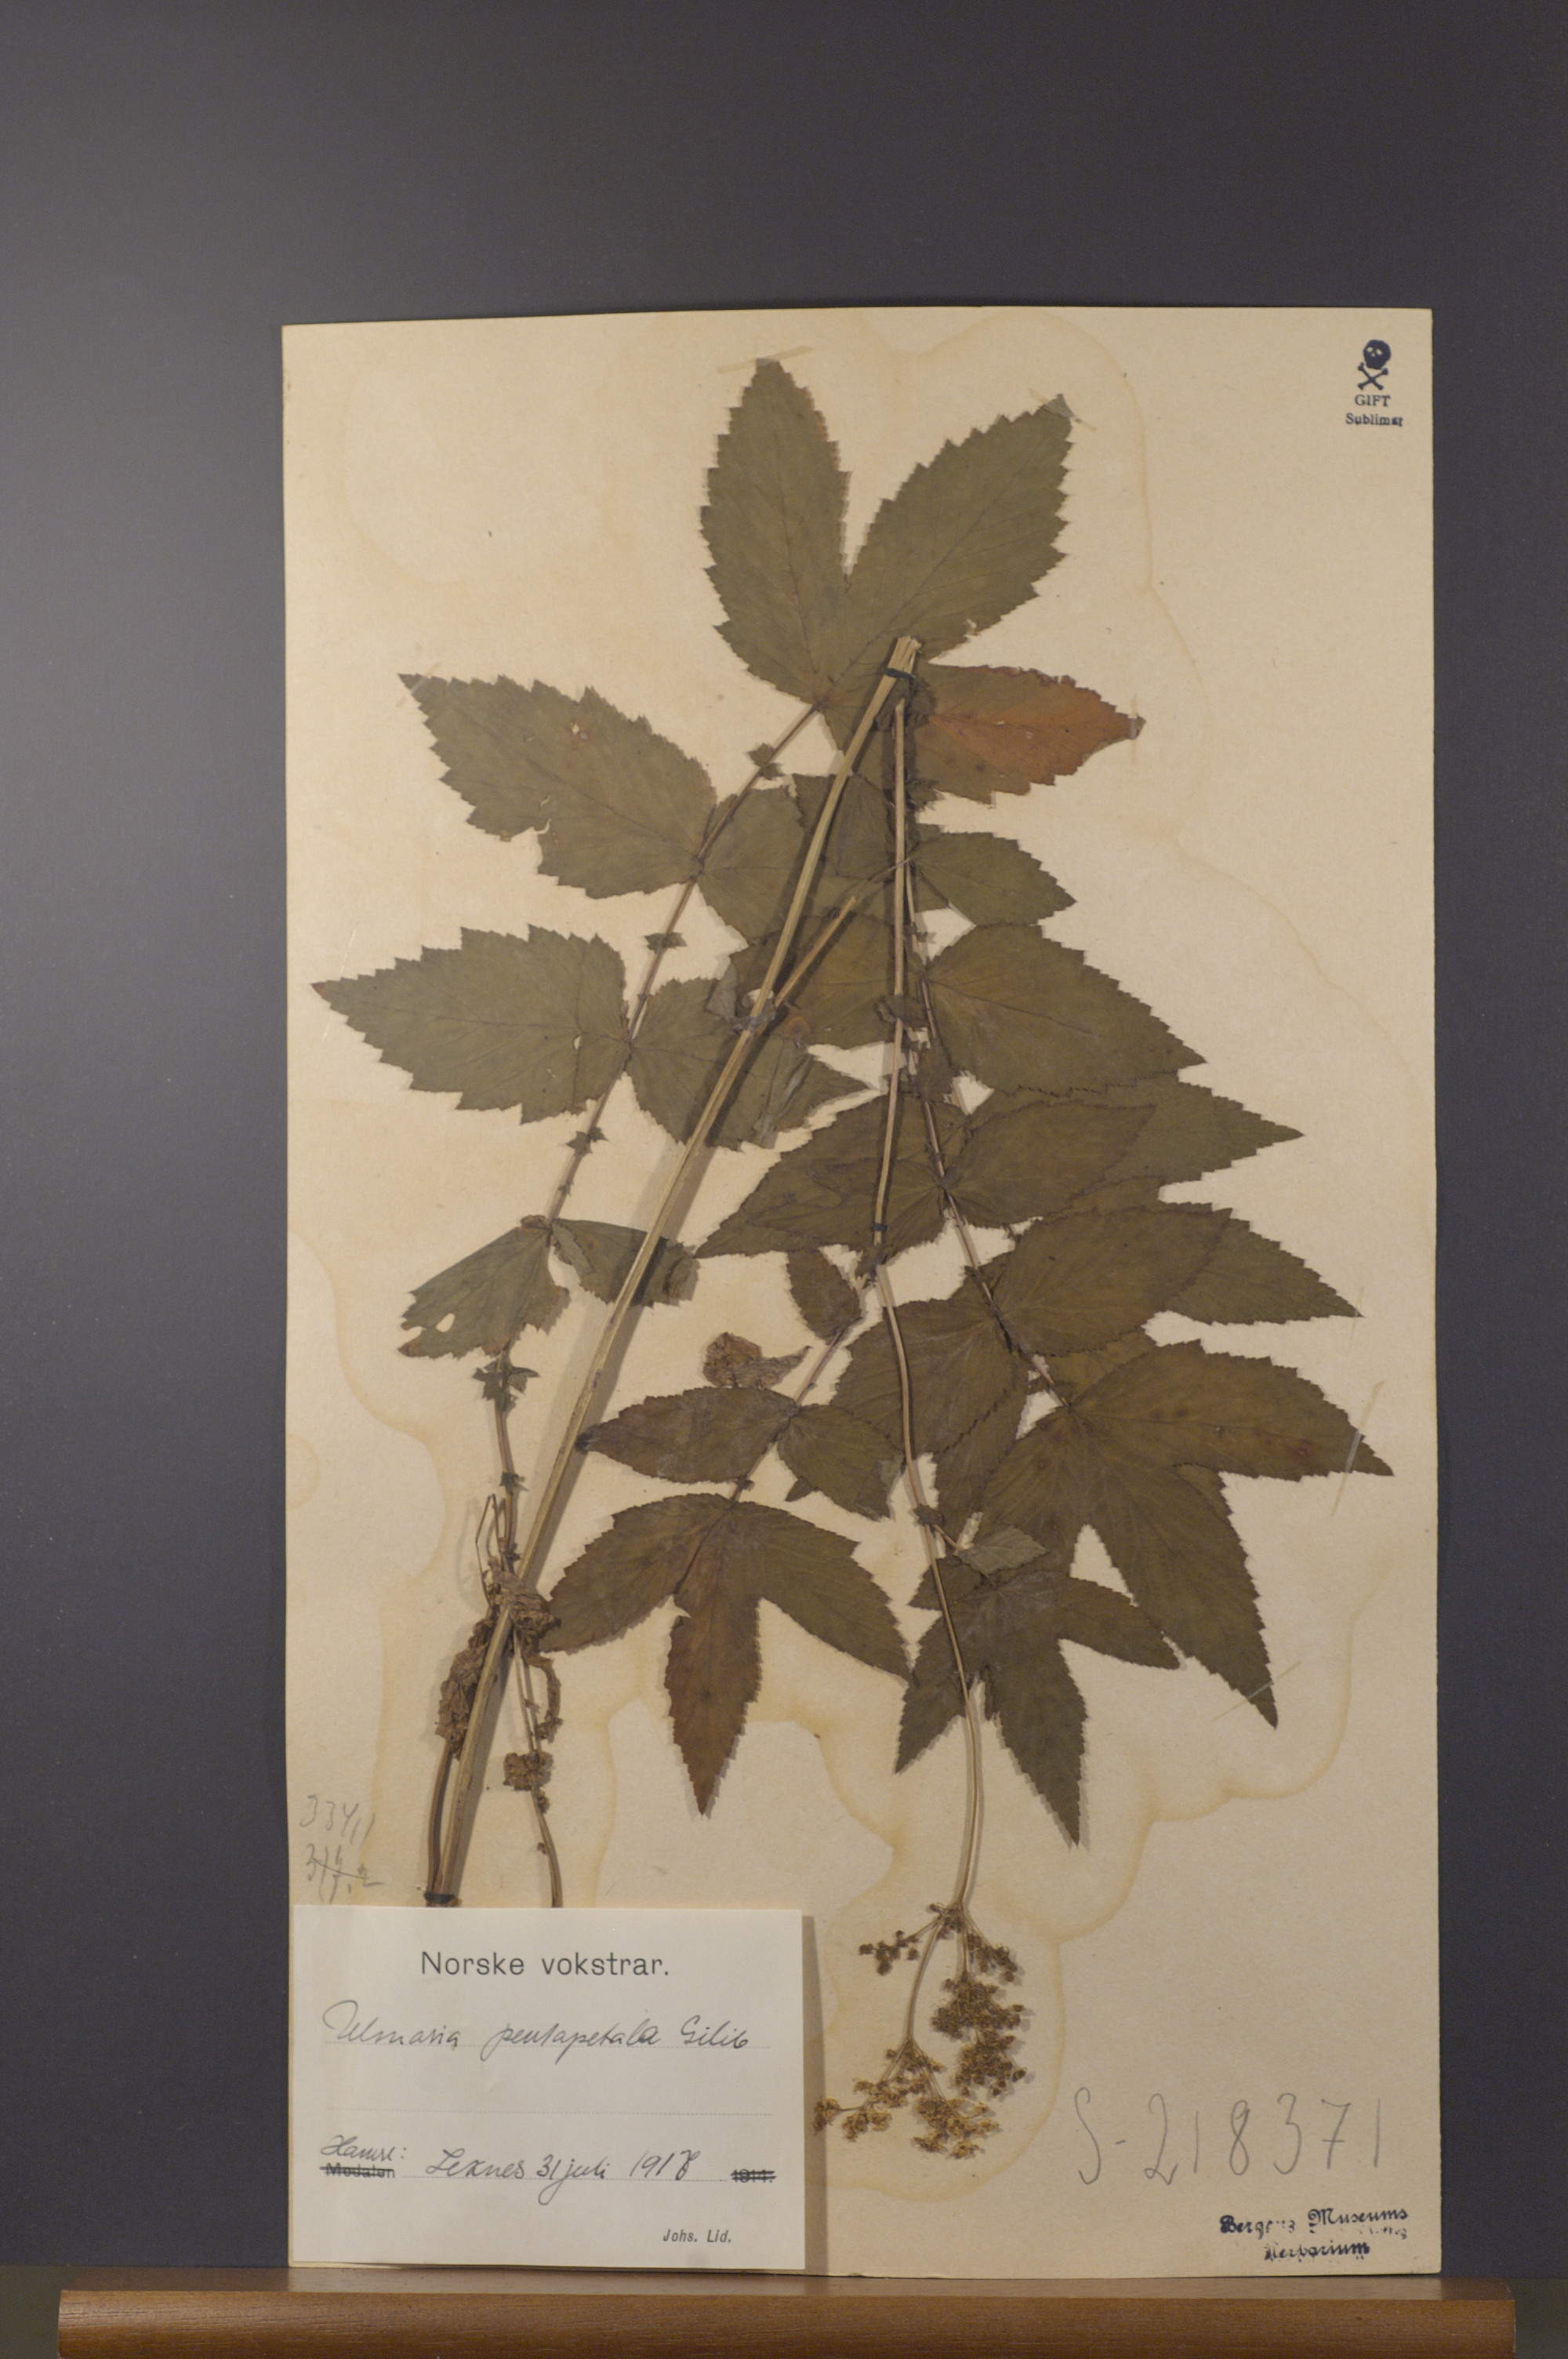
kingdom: Plantae
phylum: Tracheophyta
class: Magnoliopsida
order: Rosales
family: Rosaceae
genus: Filipendula
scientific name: Filipendula ulmaria
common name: Meadowsweet
